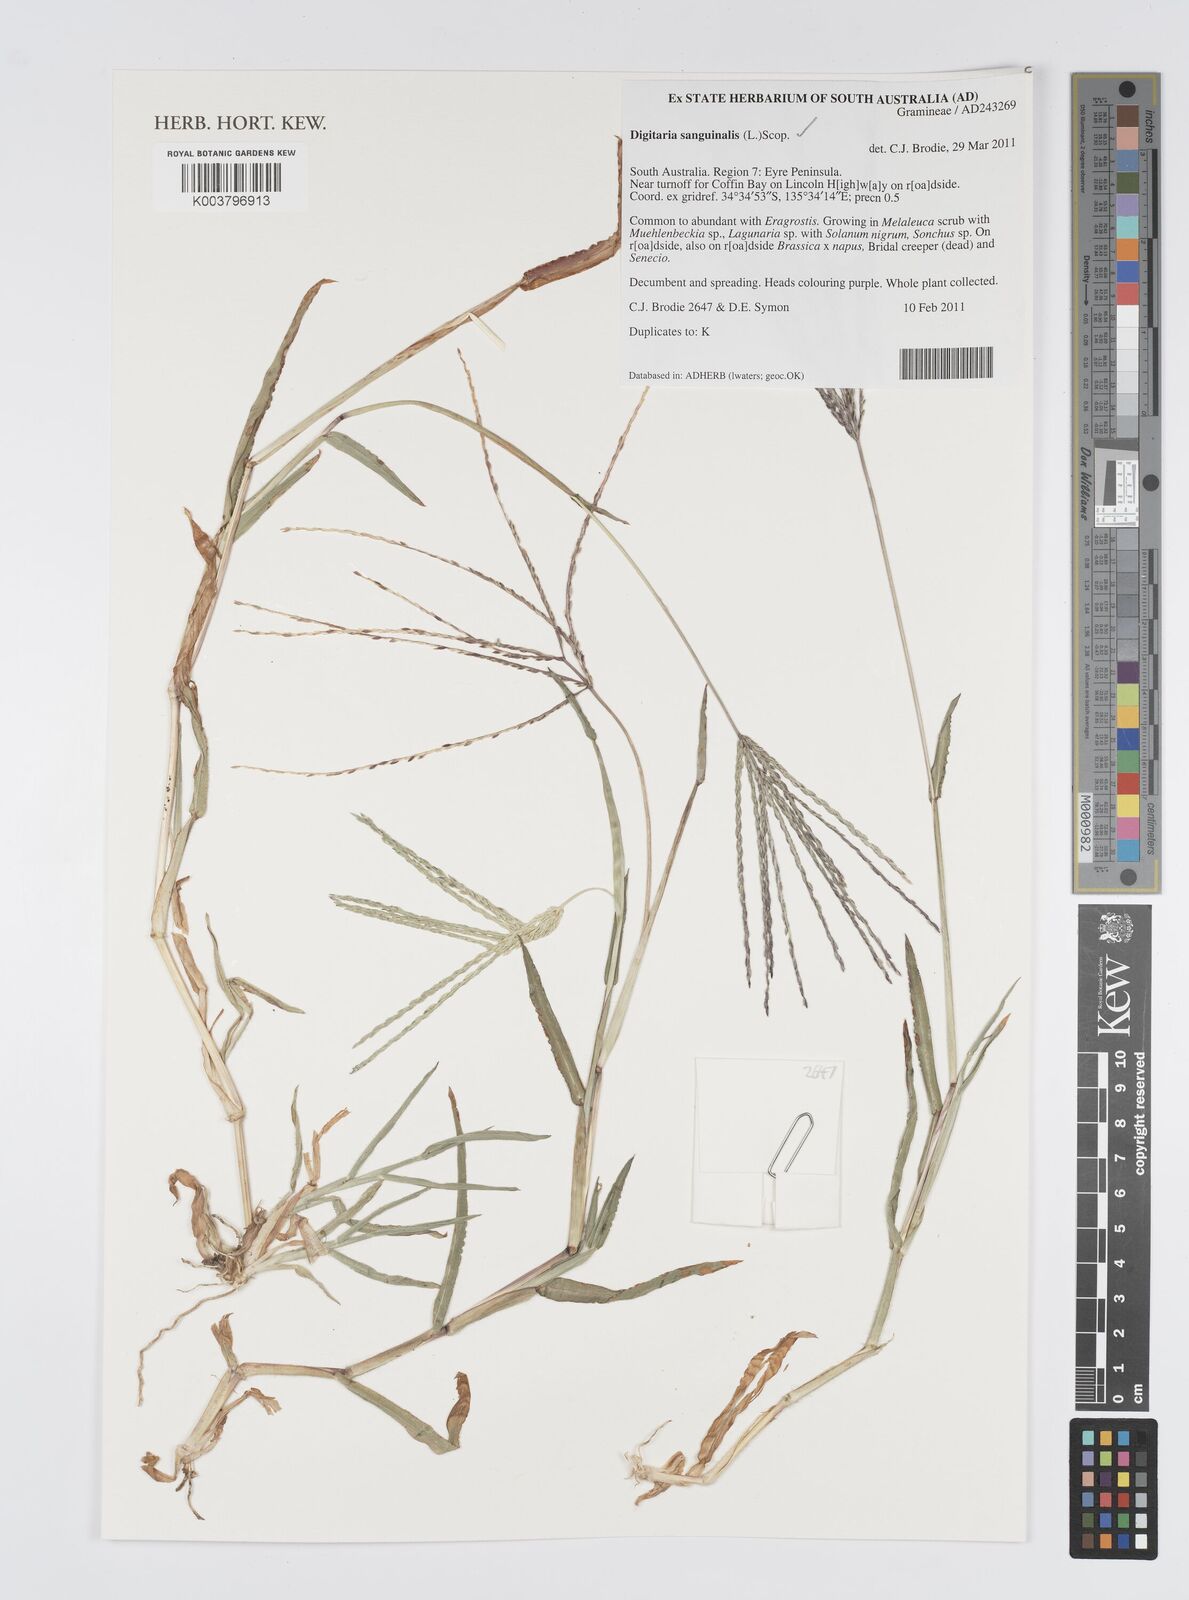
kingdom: Plantae
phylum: Tracheophyta
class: Liliopsida
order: Poales
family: Poaceae
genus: Digitaria
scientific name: Digitaria sanguinalis
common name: Hairy crabgrass
